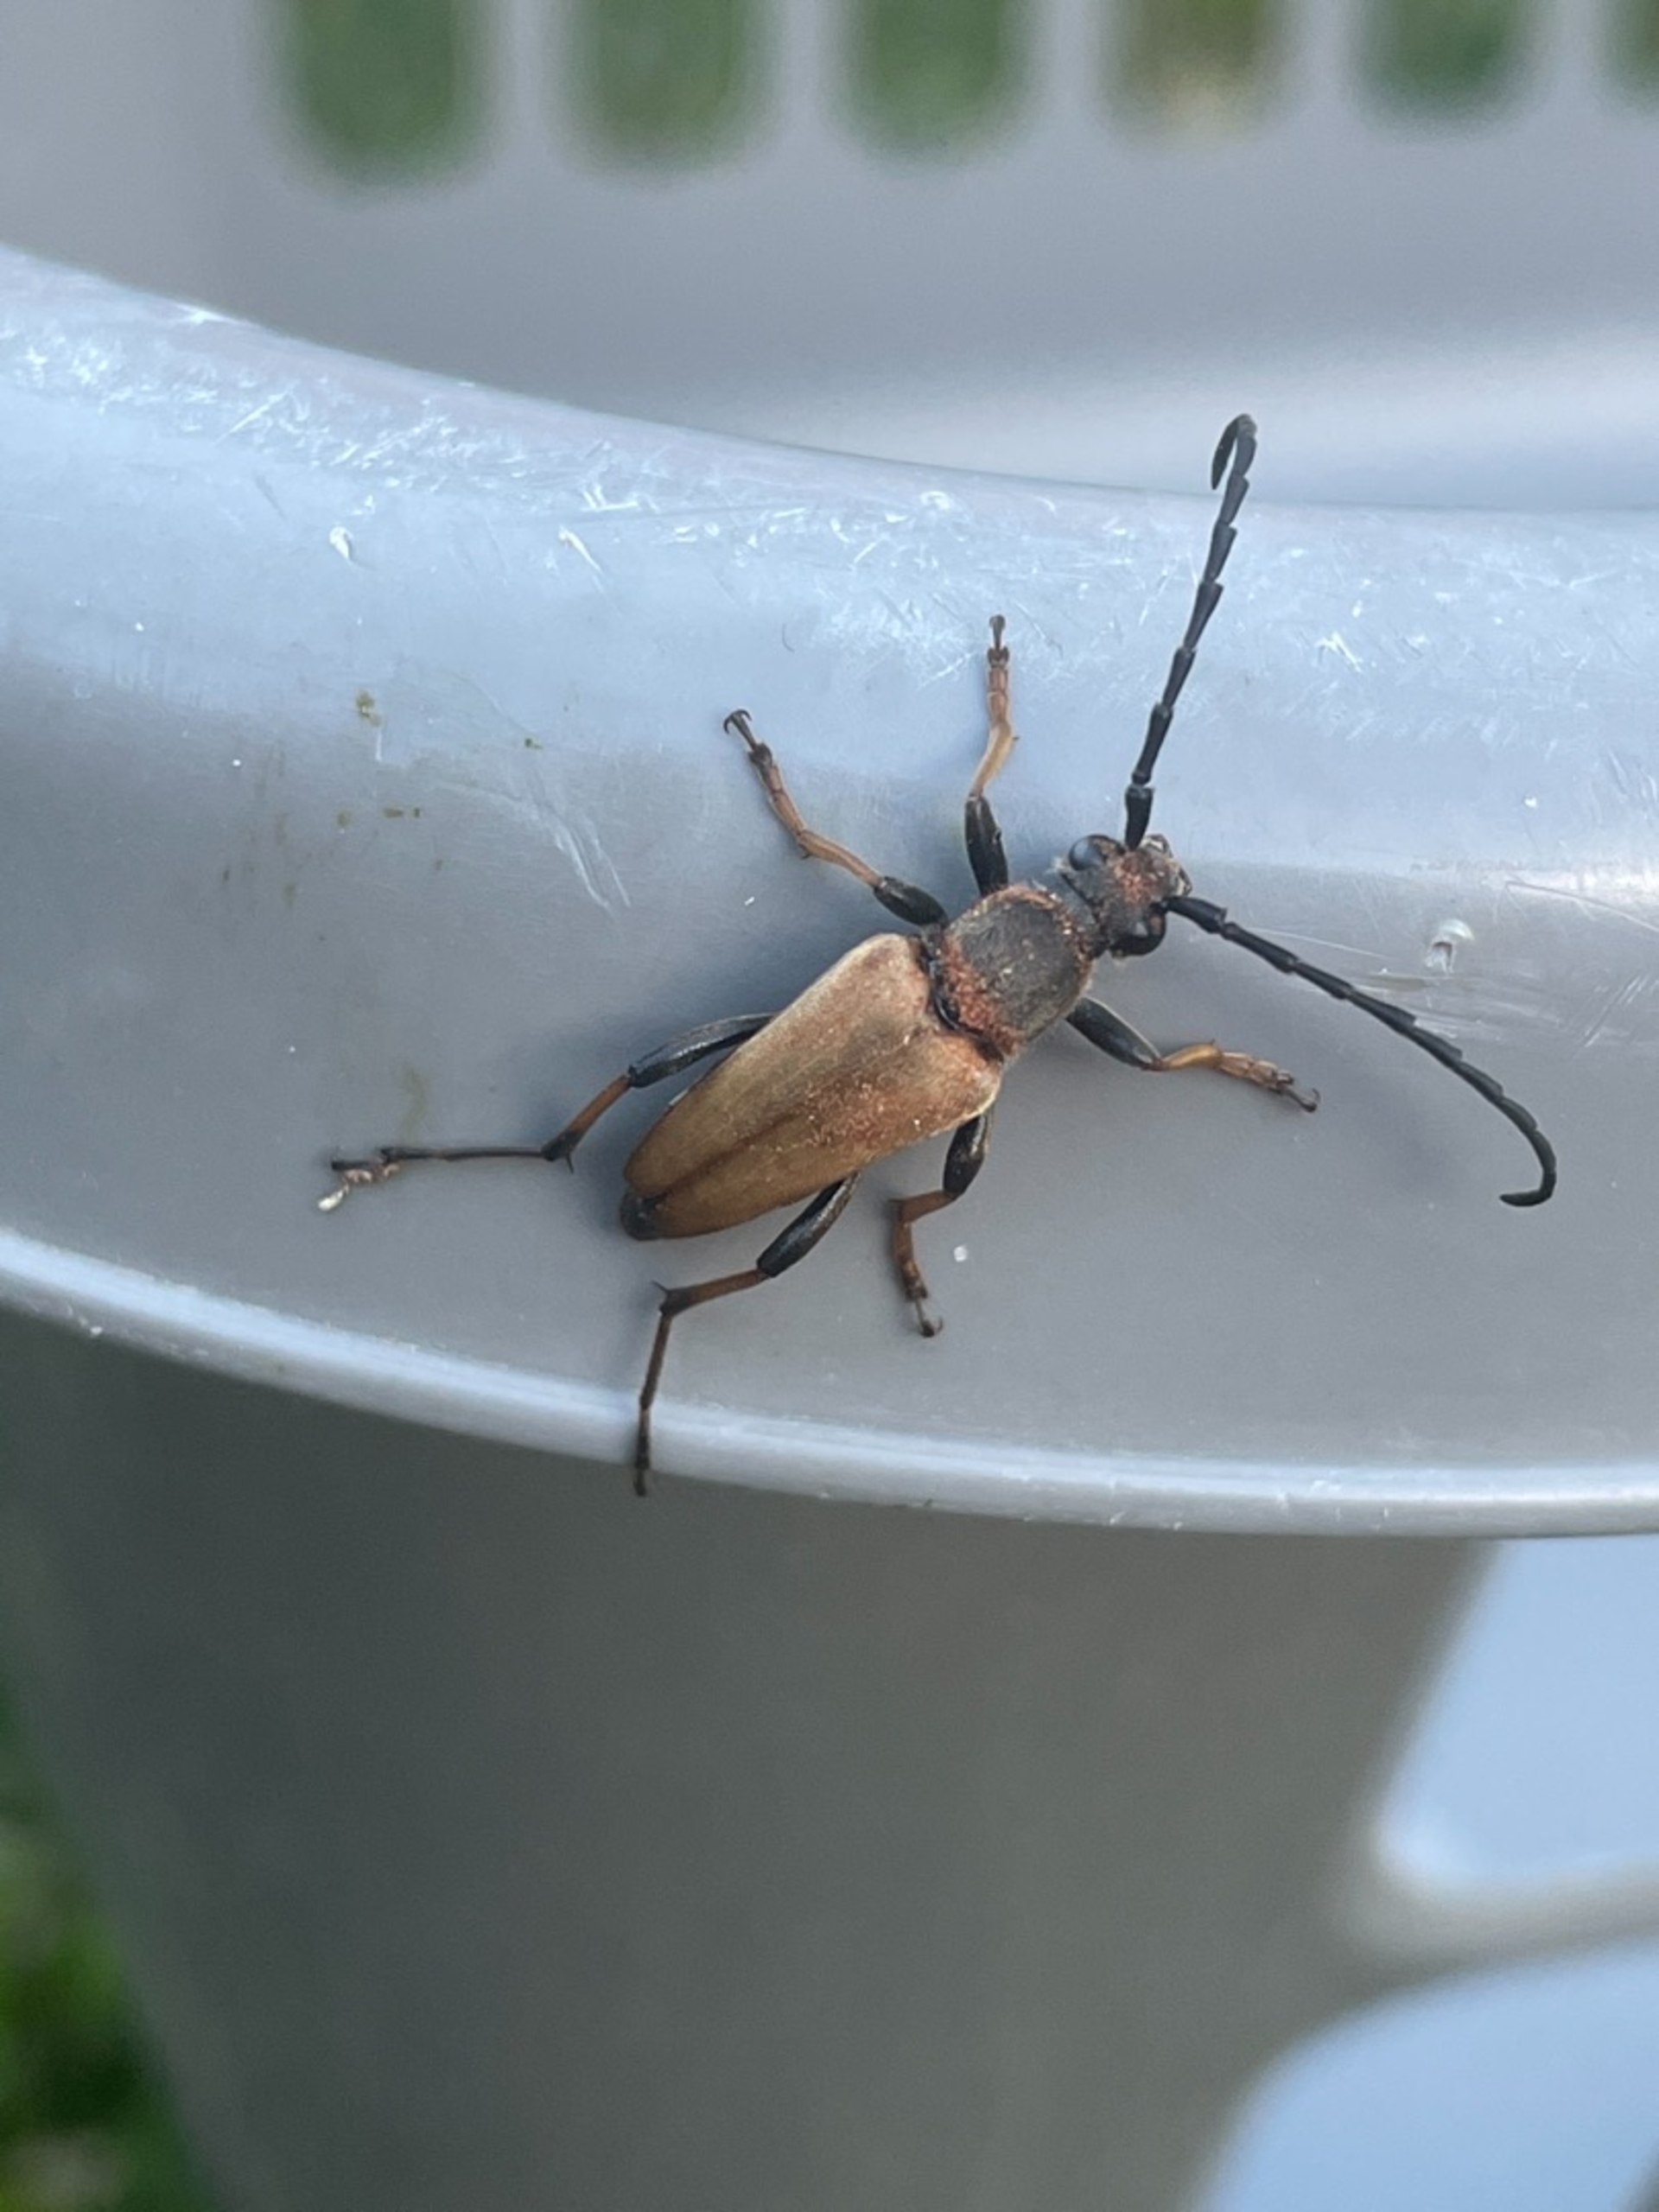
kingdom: Animalia
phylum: Arthropoda
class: Insecta
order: Coleoptera
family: Cerambycidae
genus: Stictoleptura
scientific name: Stictoleptura rubra
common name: Rød blomsterbuk
